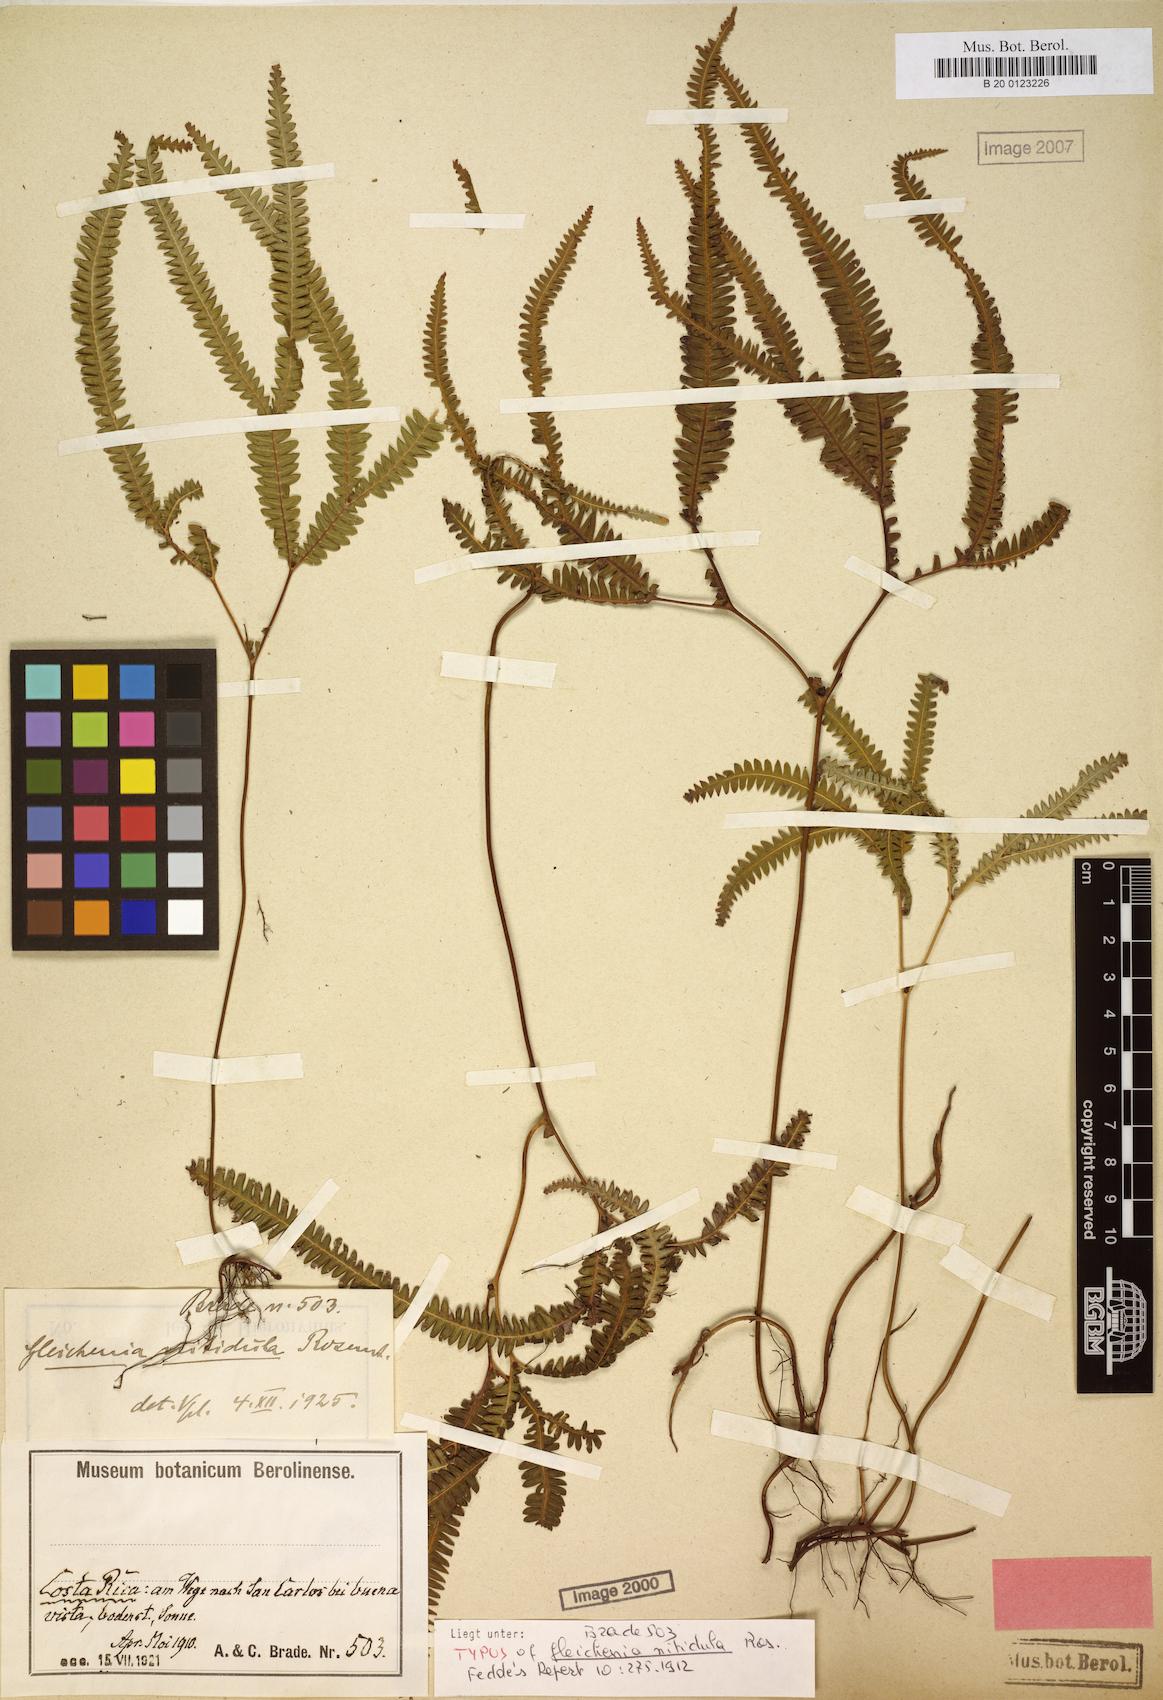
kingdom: Plantae
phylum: Tracheophyta
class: Polypodiopsida
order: Gleicheniales
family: Gleicheniaceae
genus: Sticherus
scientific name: Sticherus hypoleucus
